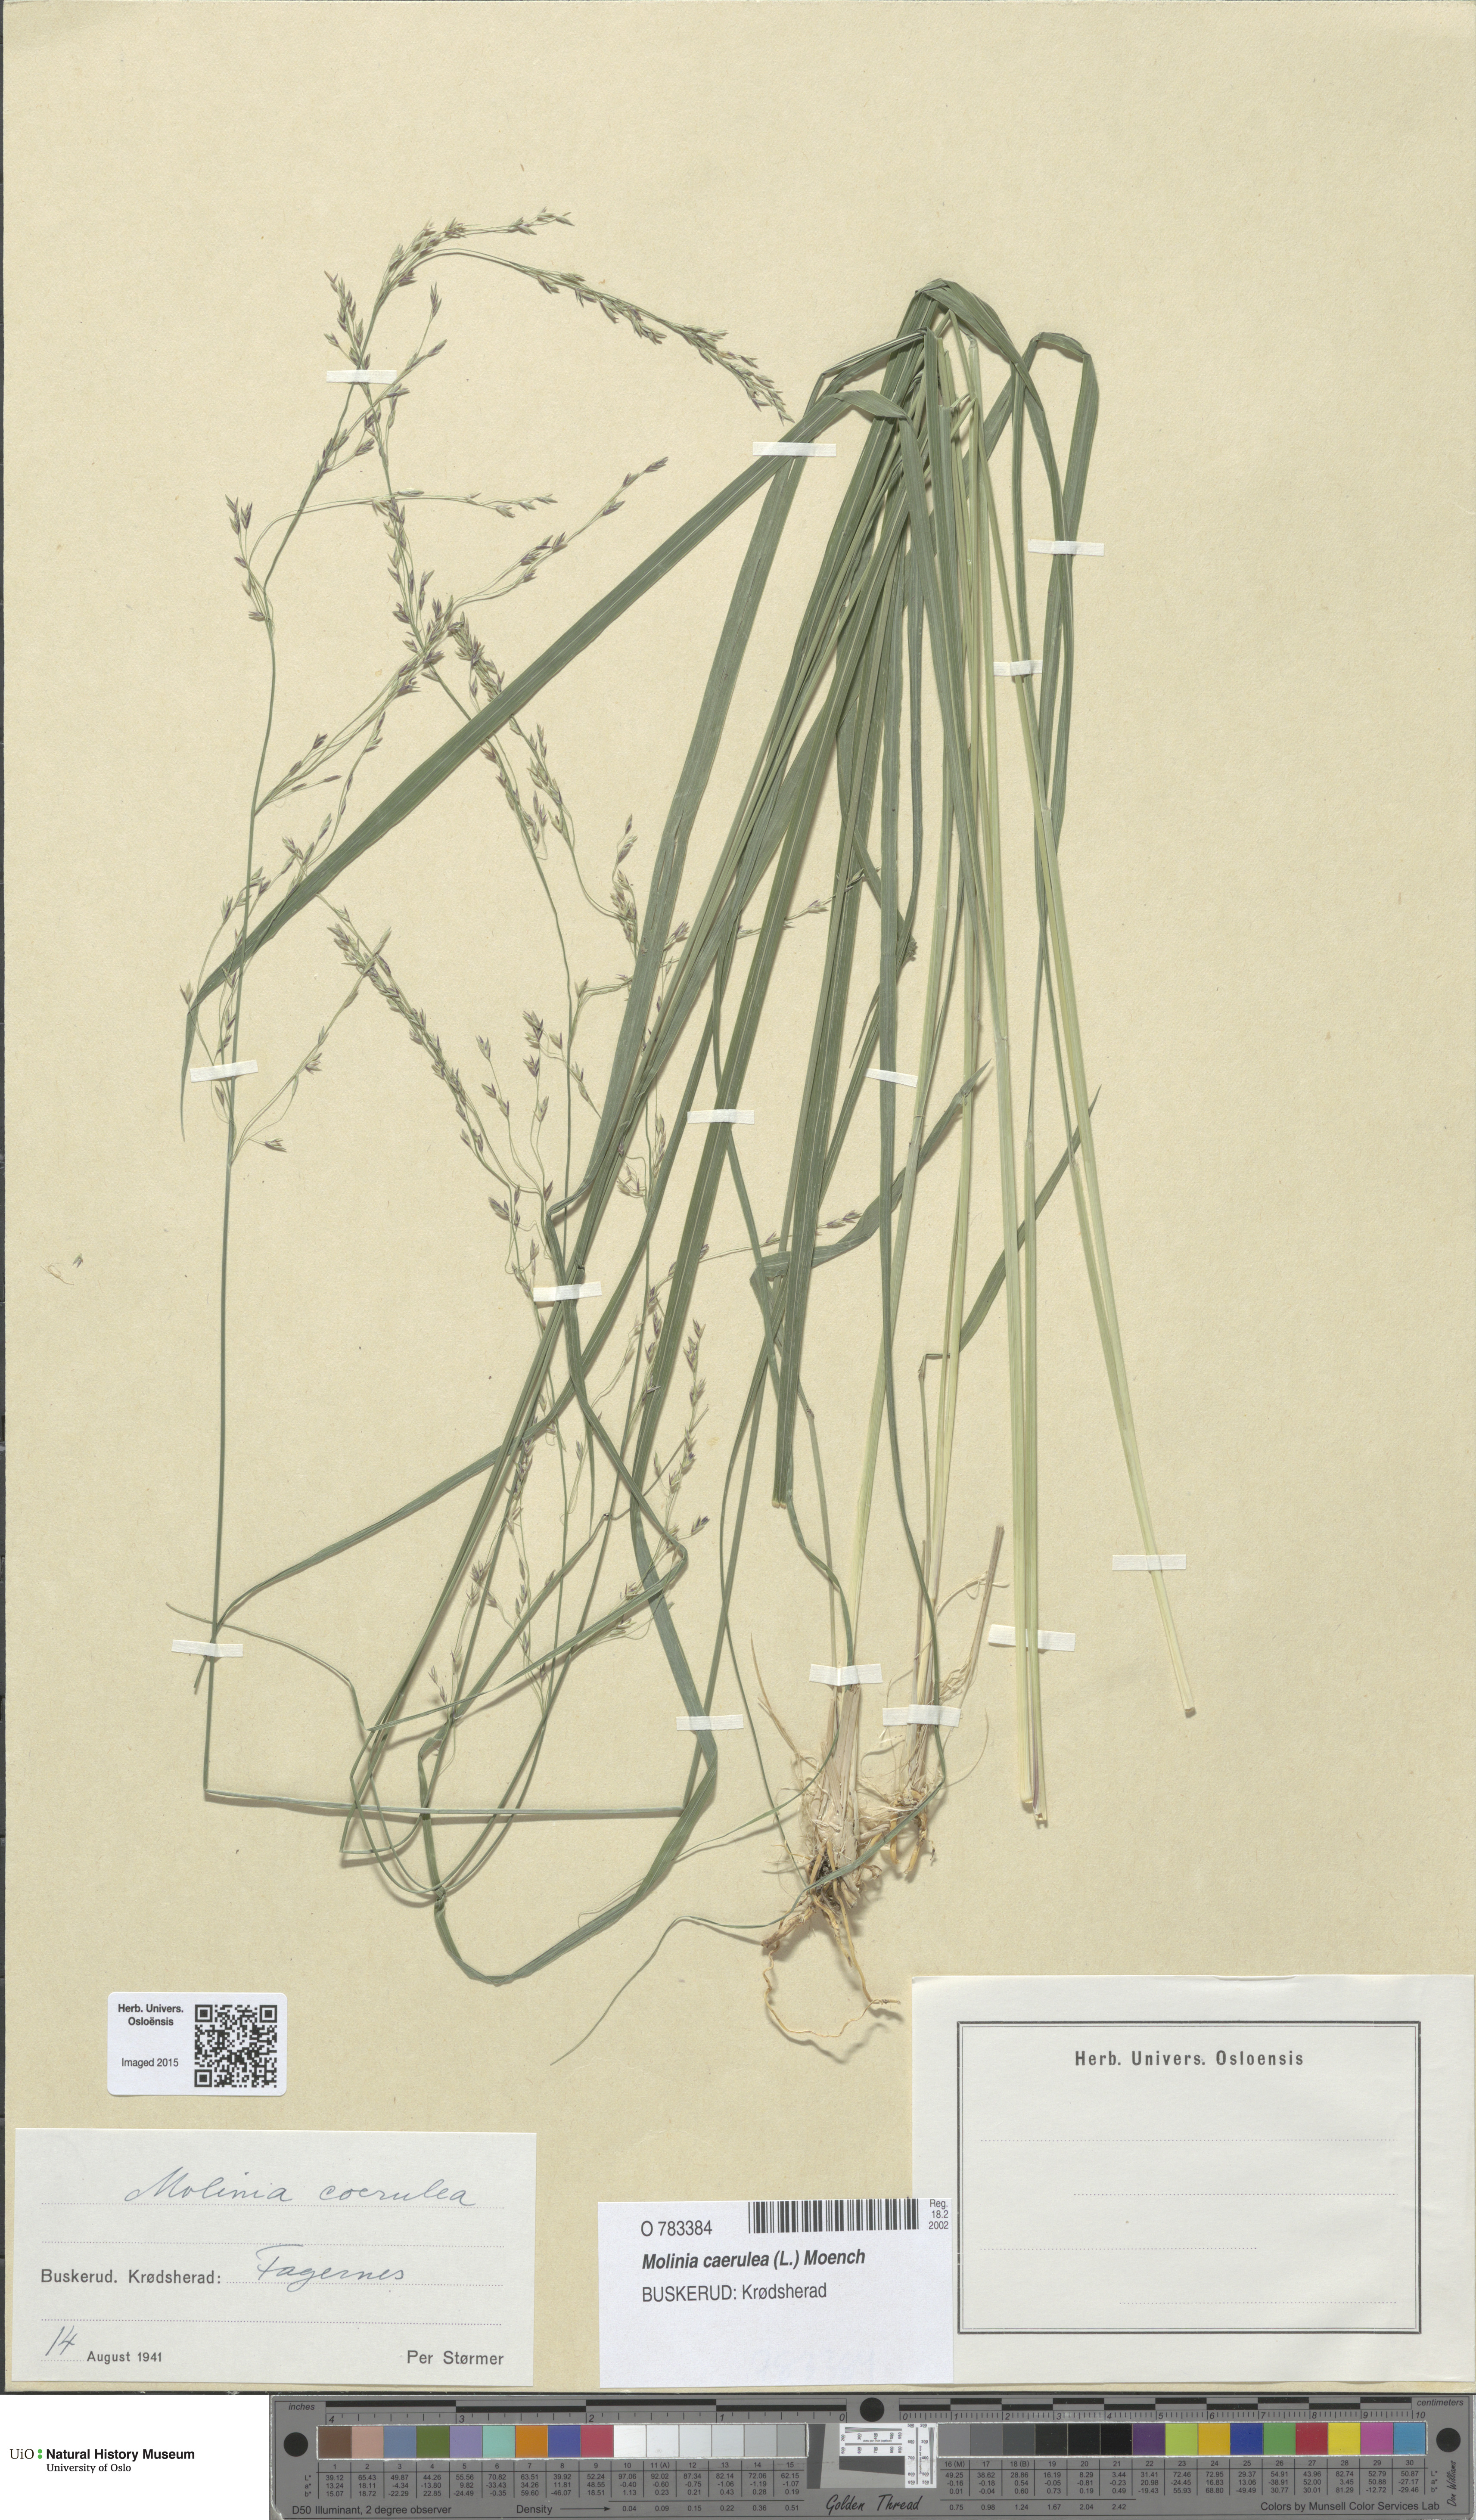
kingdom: Plantae
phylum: Tracheophyta
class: Liliopsida
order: Poales
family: Poaceae
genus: Molinia
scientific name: Molinia caerulea
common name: Purple moor-grass
